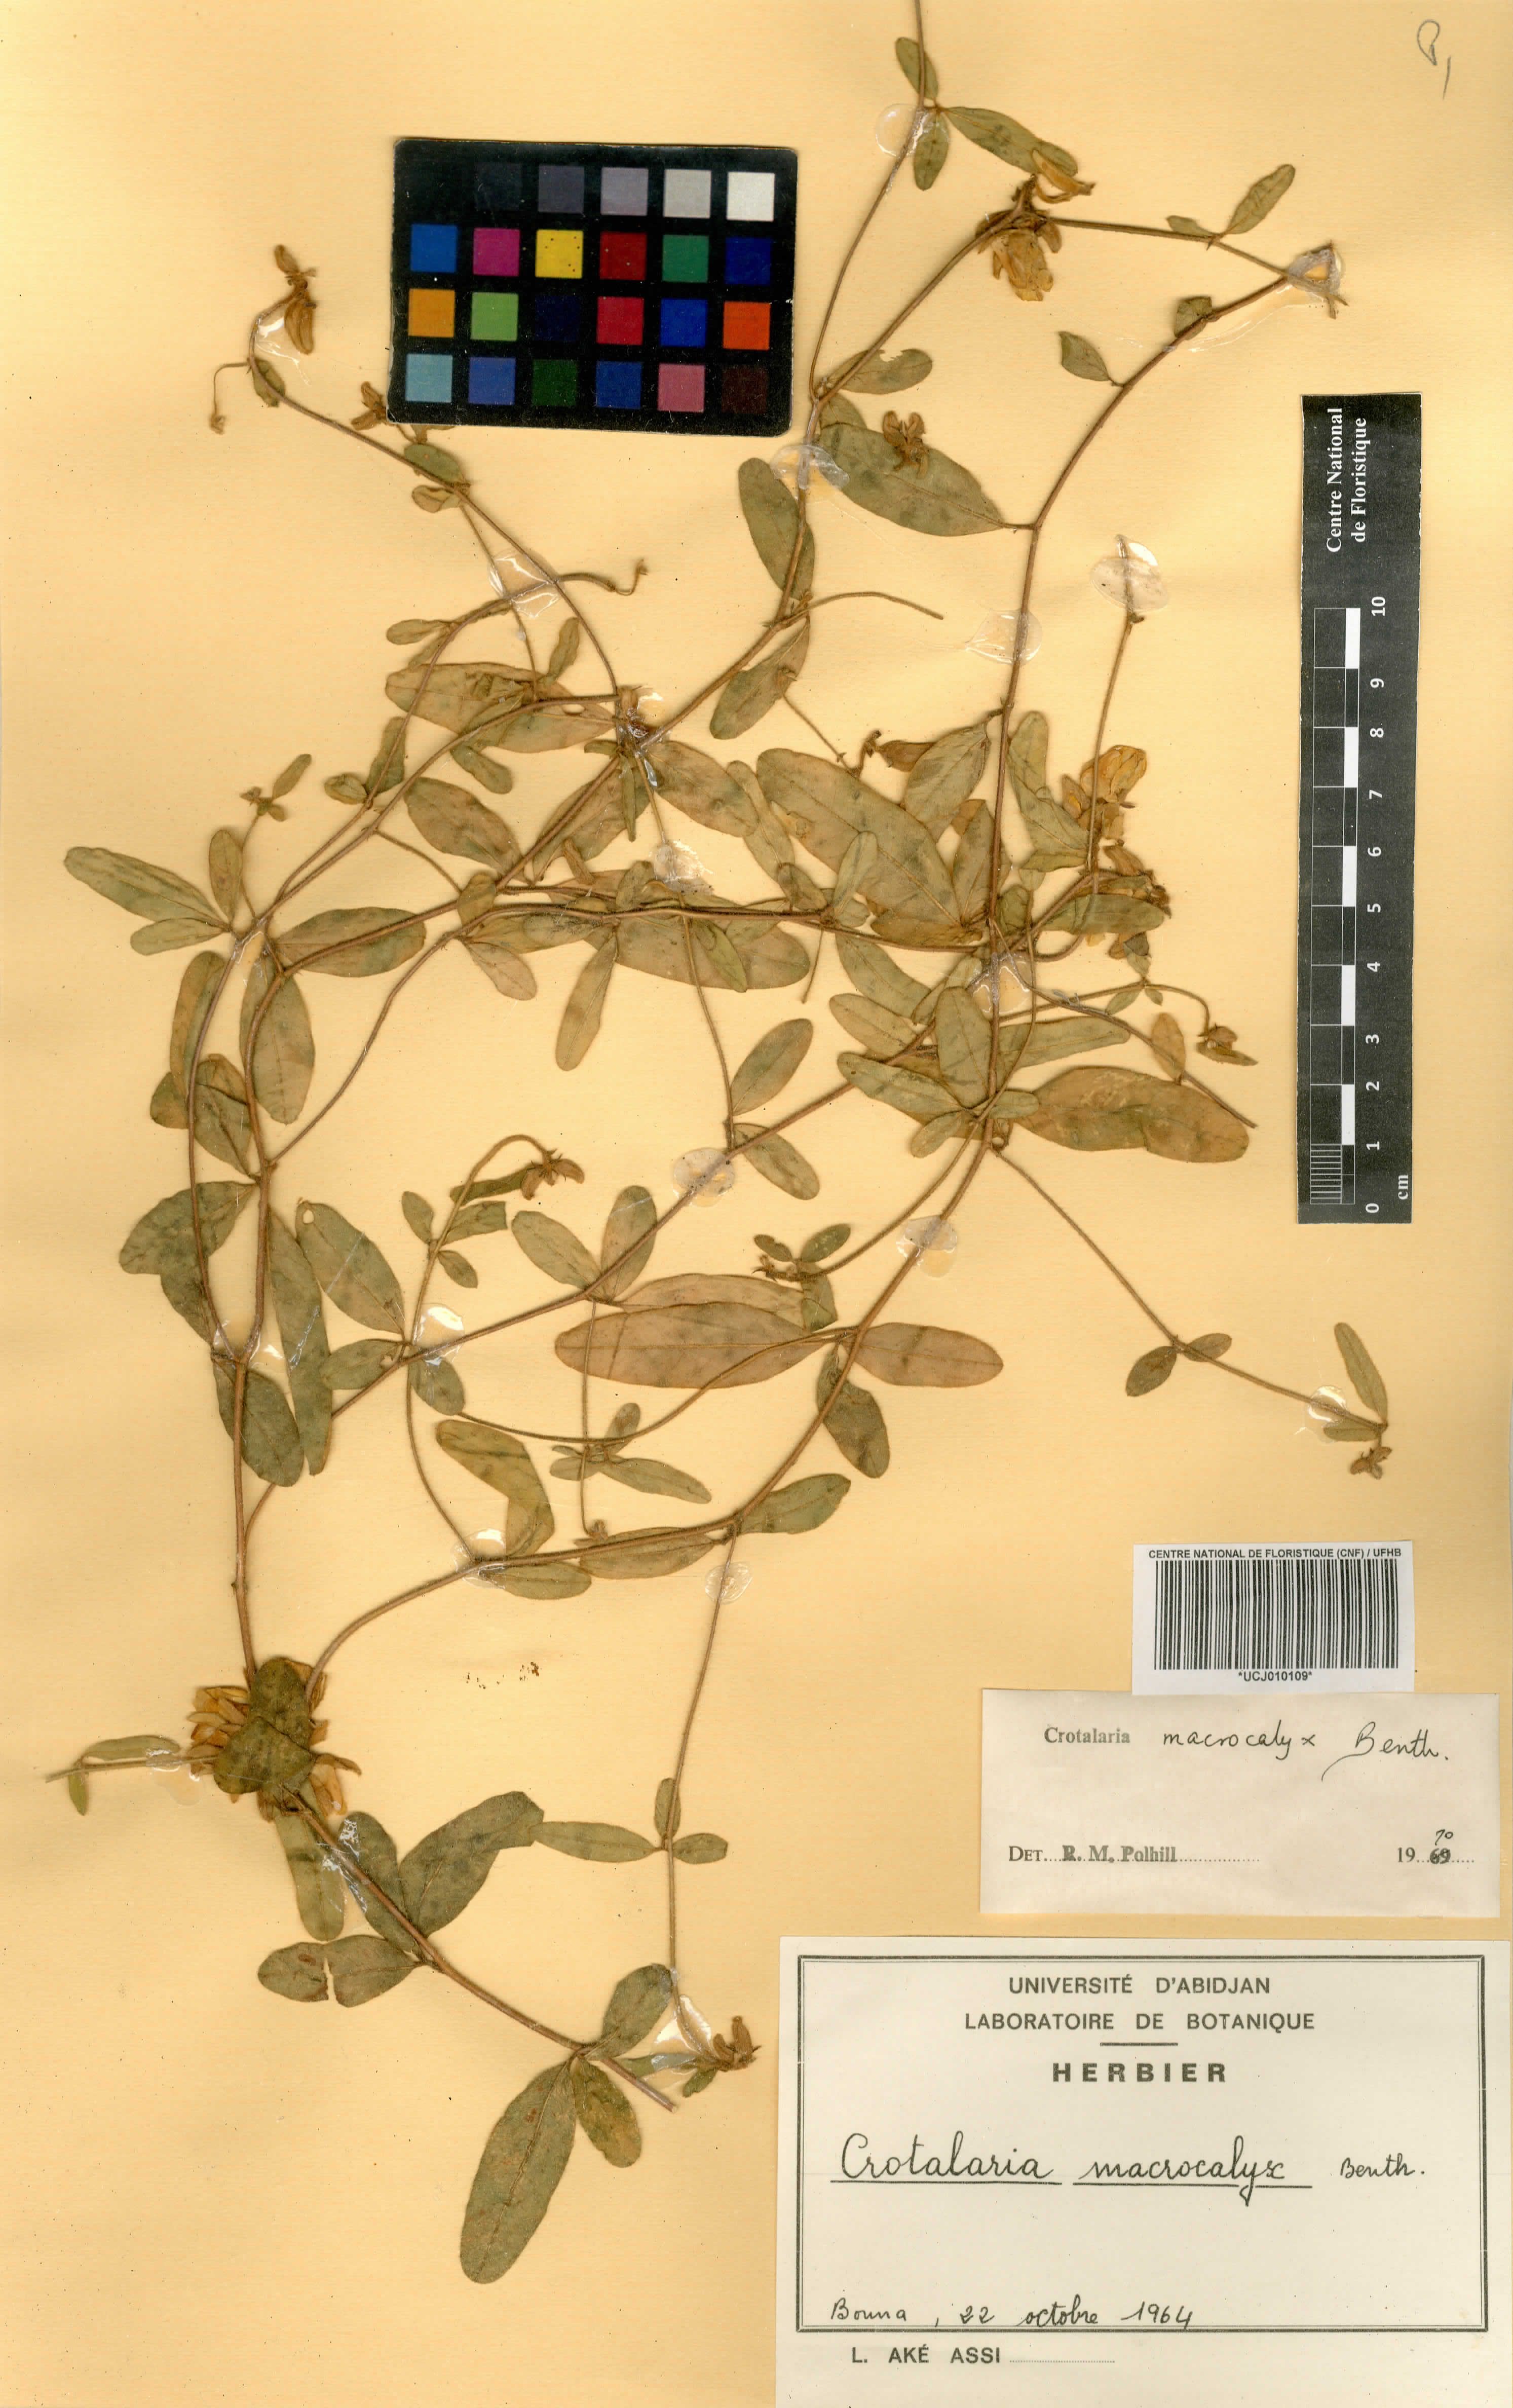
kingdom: Plantae
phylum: Tracheophyta
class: Magnoliopsida
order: Fabales
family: Fabaceae
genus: Crotalaria
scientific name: Crotalaria macrocalyx
